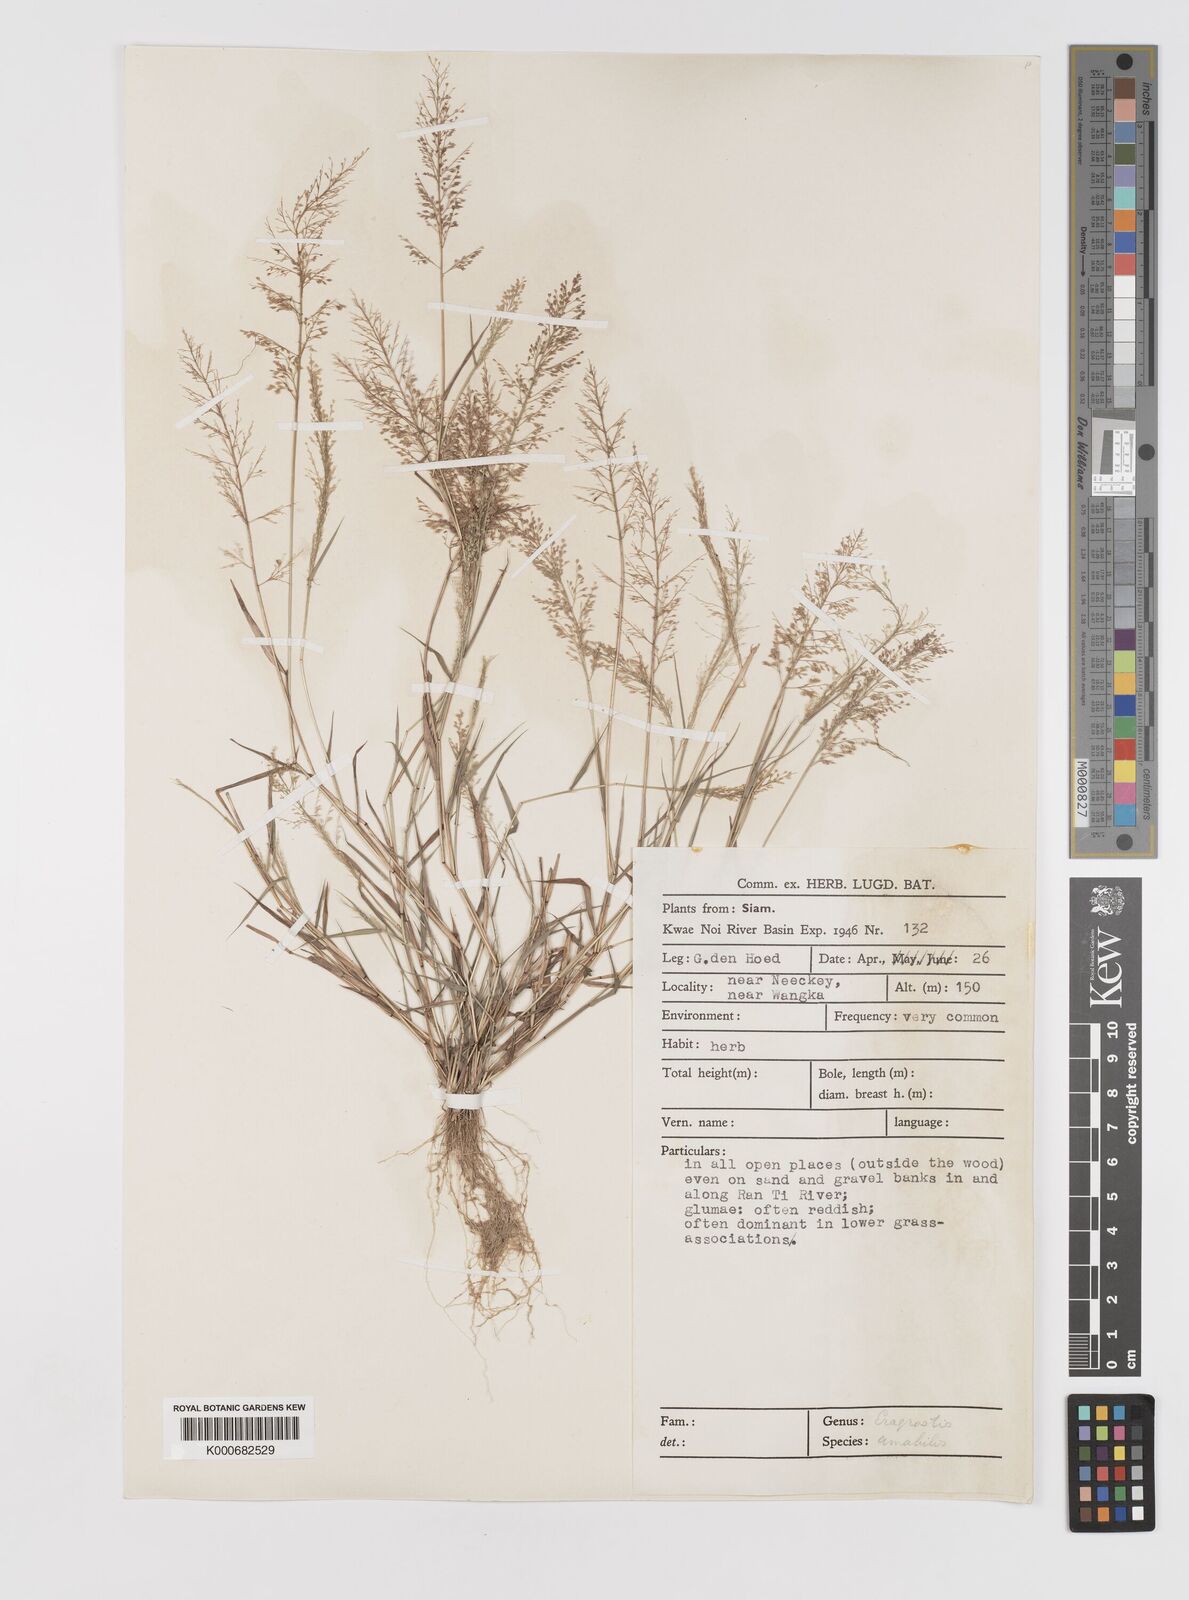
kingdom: Plantae
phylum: Tracheophyta
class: Liliopsida
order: Poales
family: Poaceae
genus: Eragrostis
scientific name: Eragrostis tenella
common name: Japanese lovegrass
